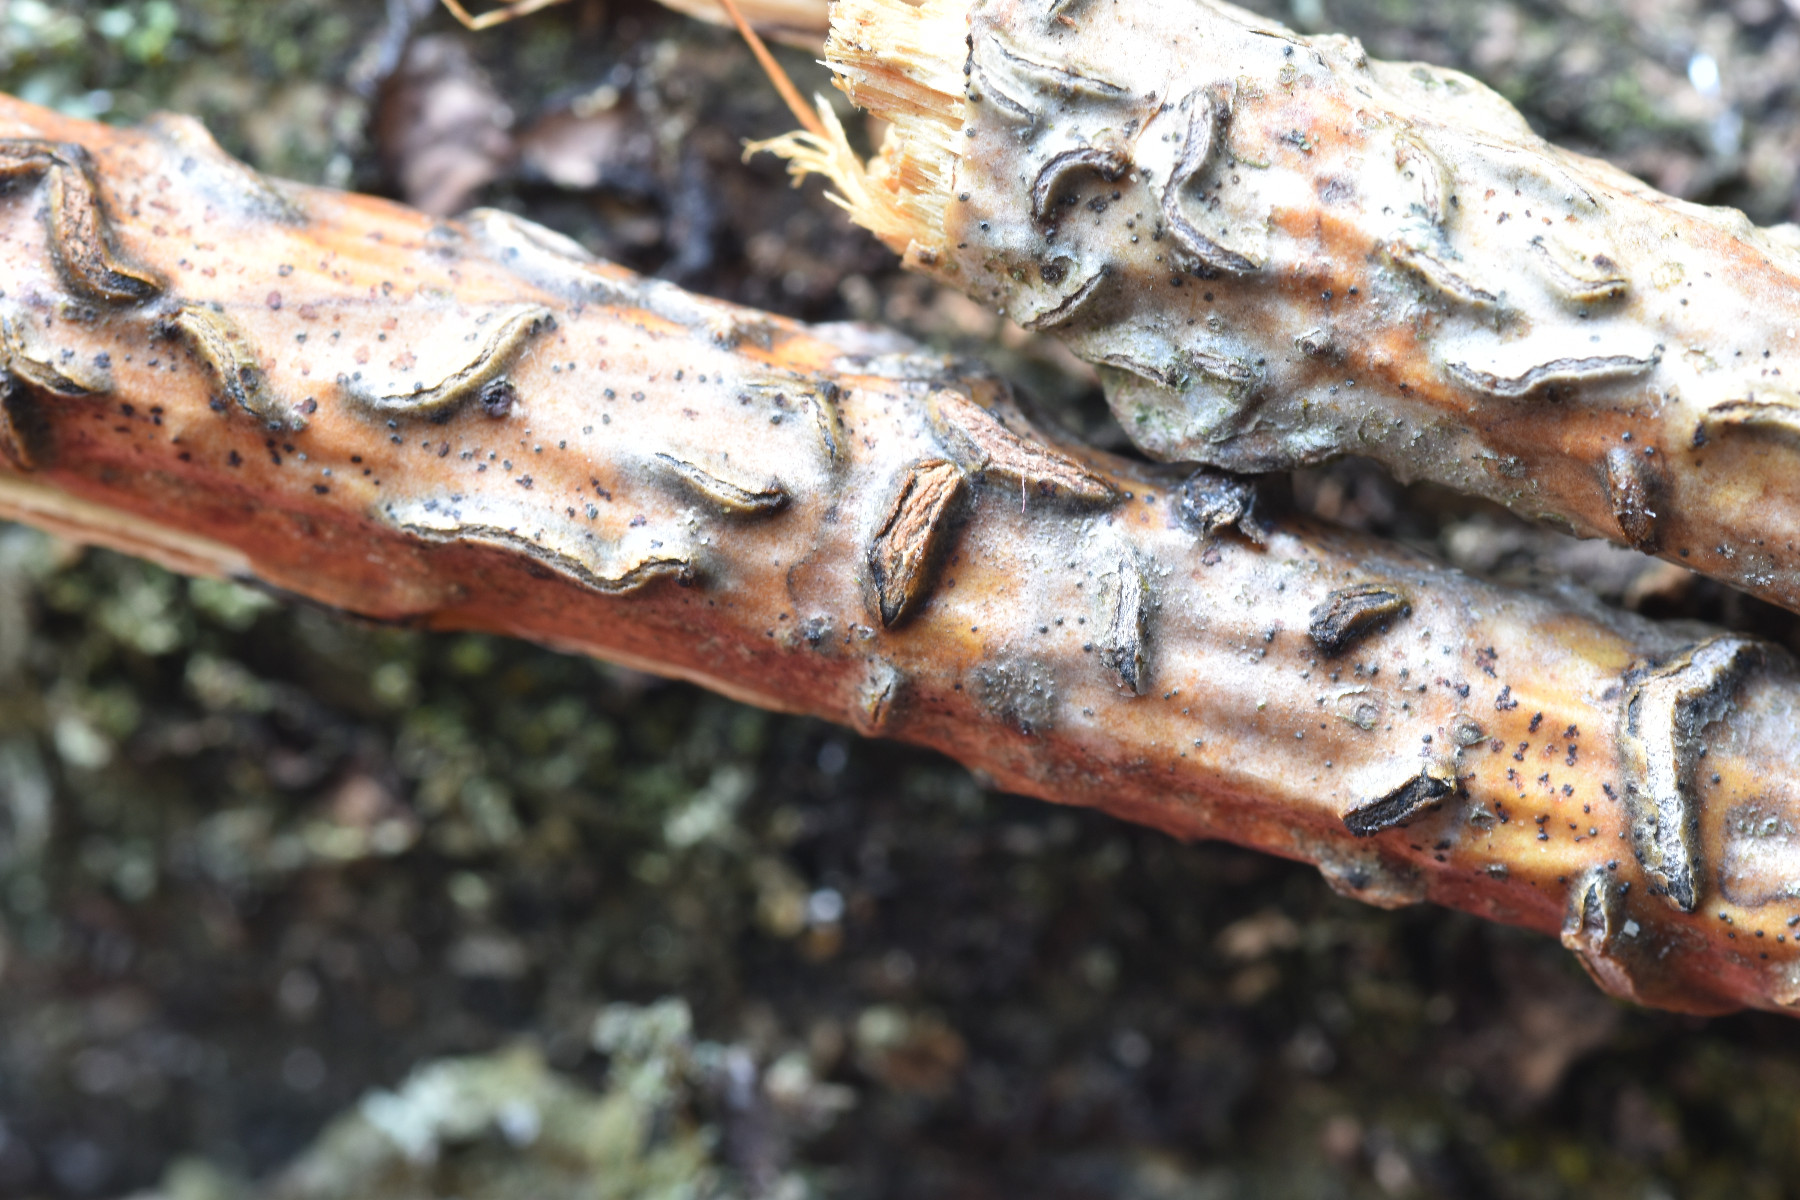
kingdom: Fungi
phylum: Ascomycota
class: Leotiomycetes
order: Rhytismatales
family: Rhytismataceae
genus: Colpoma
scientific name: Colpoma quercinum
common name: ege-sprækkeskive
